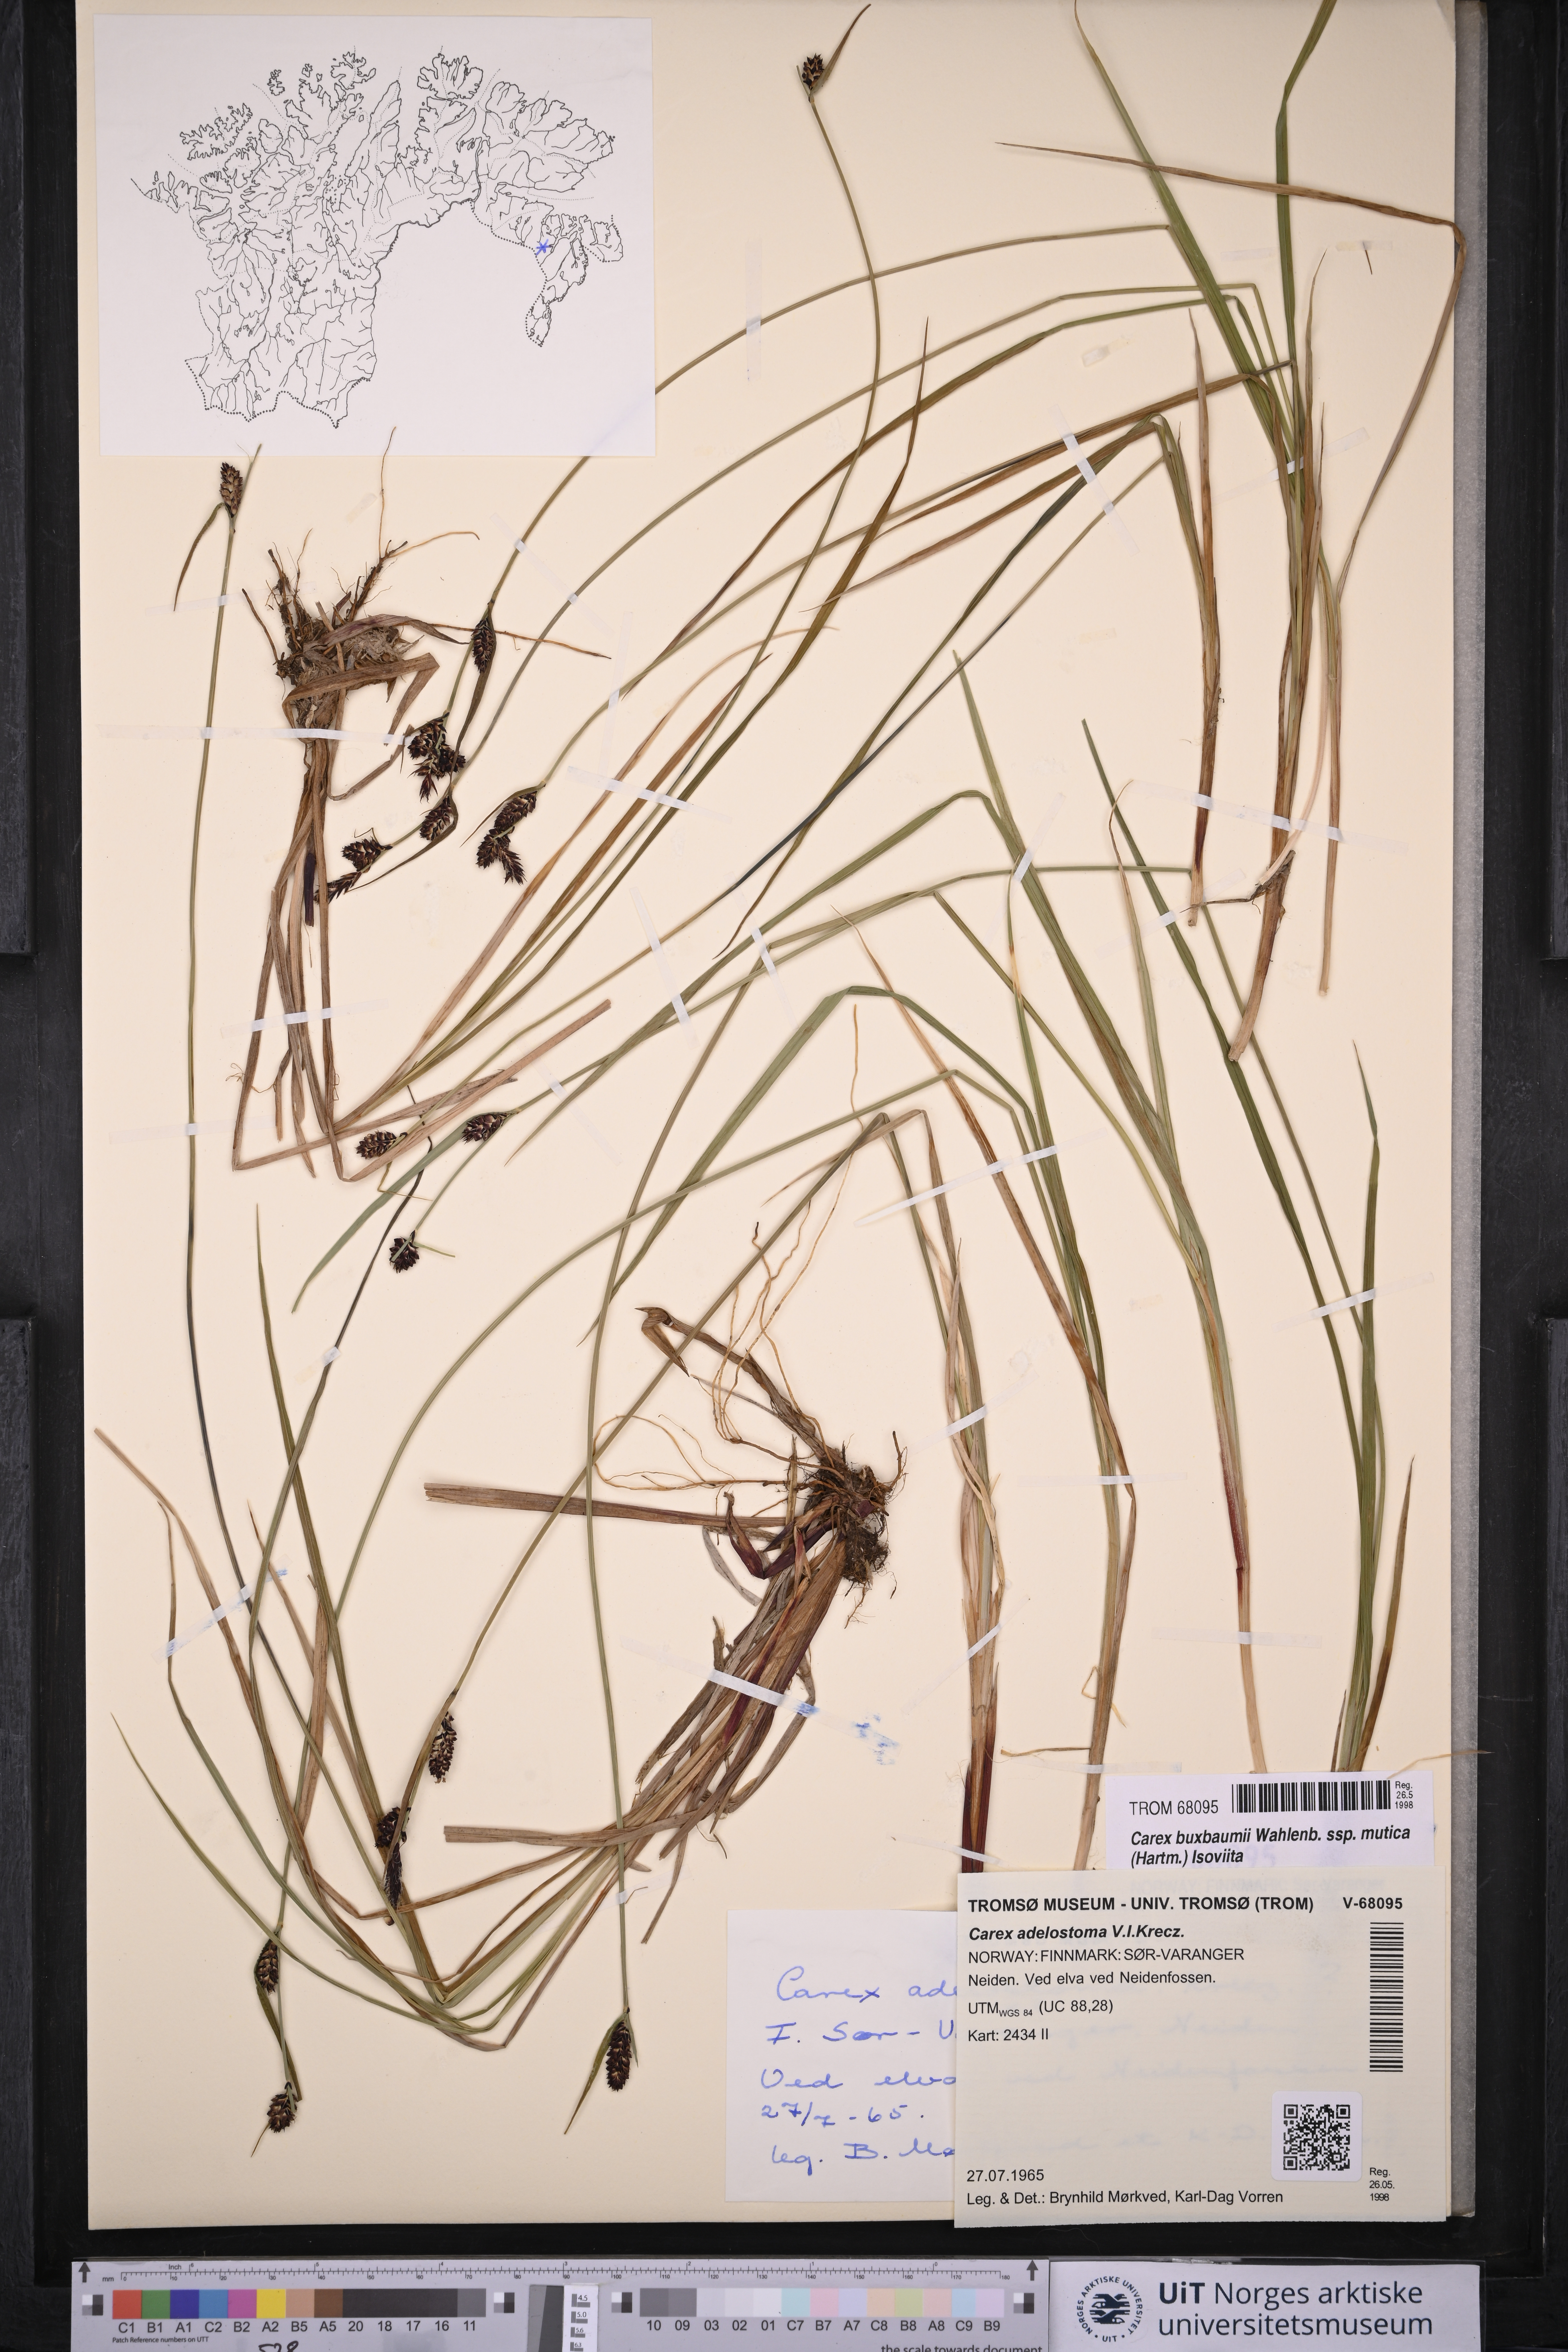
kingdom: Plantae
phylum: Tracheophyta
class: Liliopsida
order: Poales
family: Cyperaceae
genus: Carex
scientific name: Carex adelostoma
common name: Circumpolar sedge
